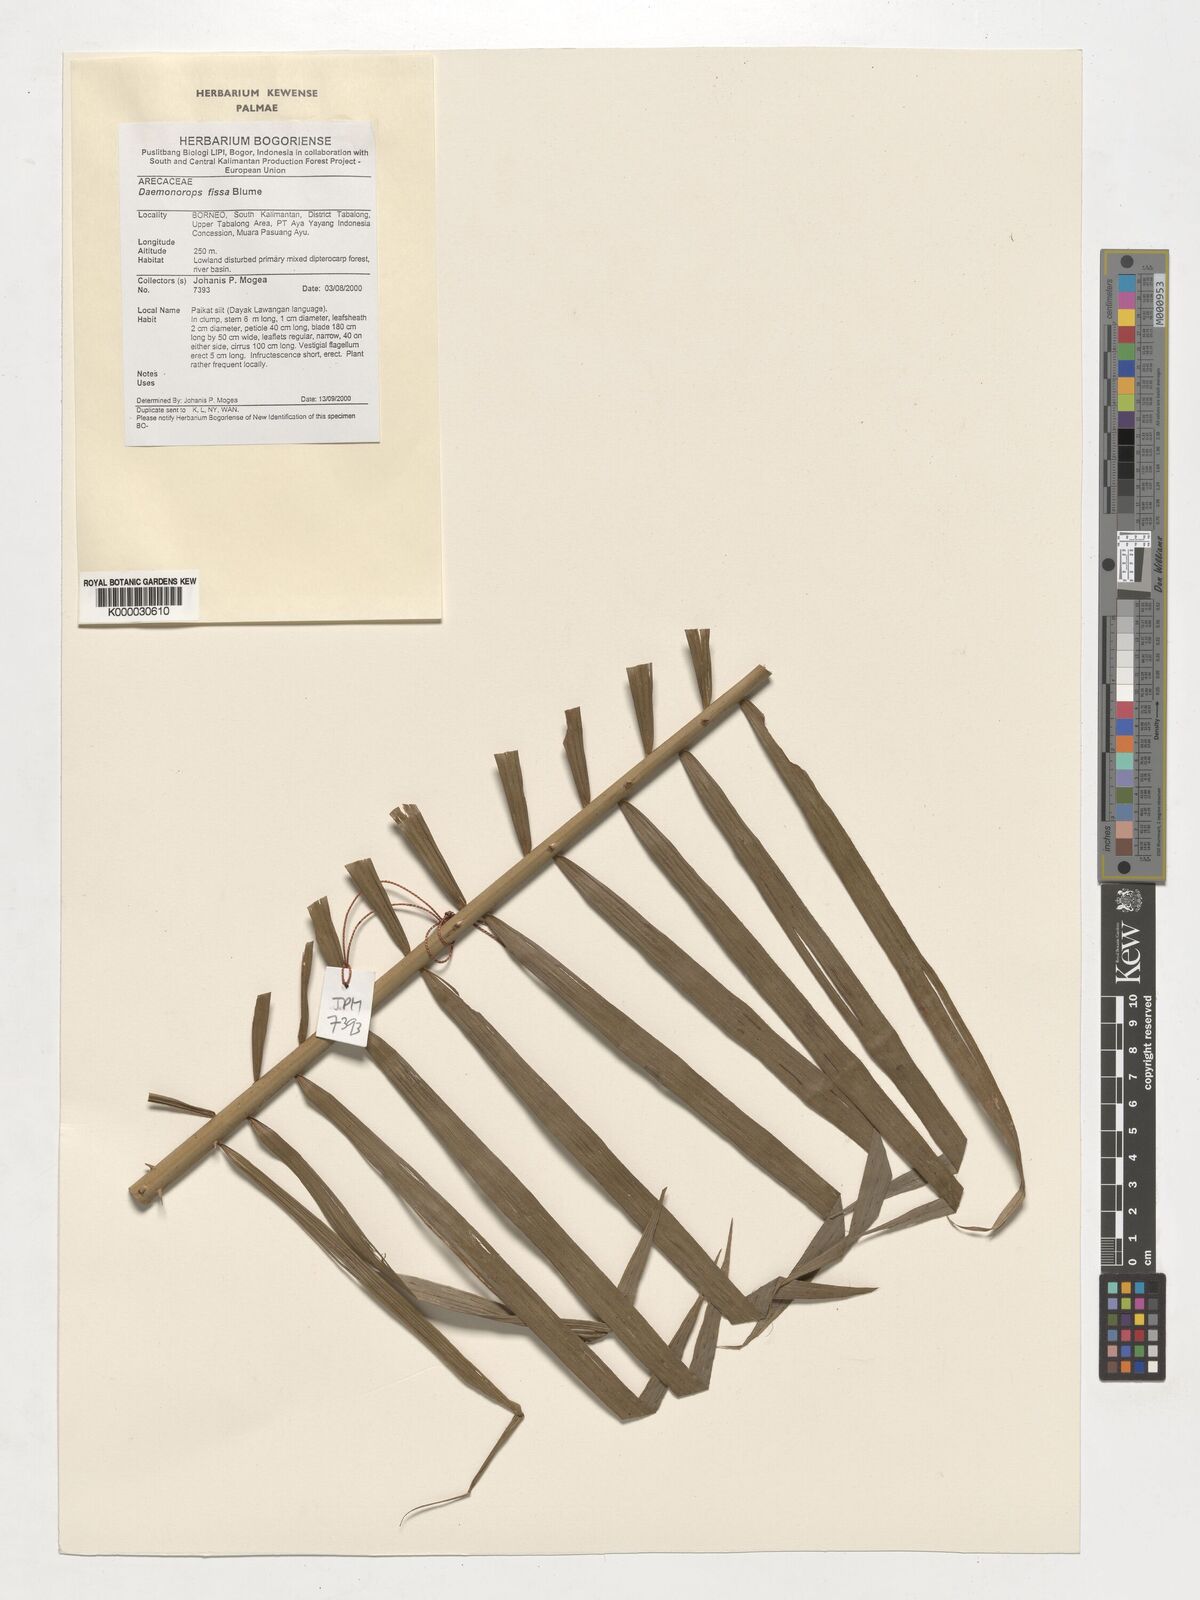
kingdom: Plantae
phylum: Tracheophyta
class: Liliopsida
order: Arecales
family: Arecaceae
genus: Calamus
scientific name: Calamus melanochaetes
